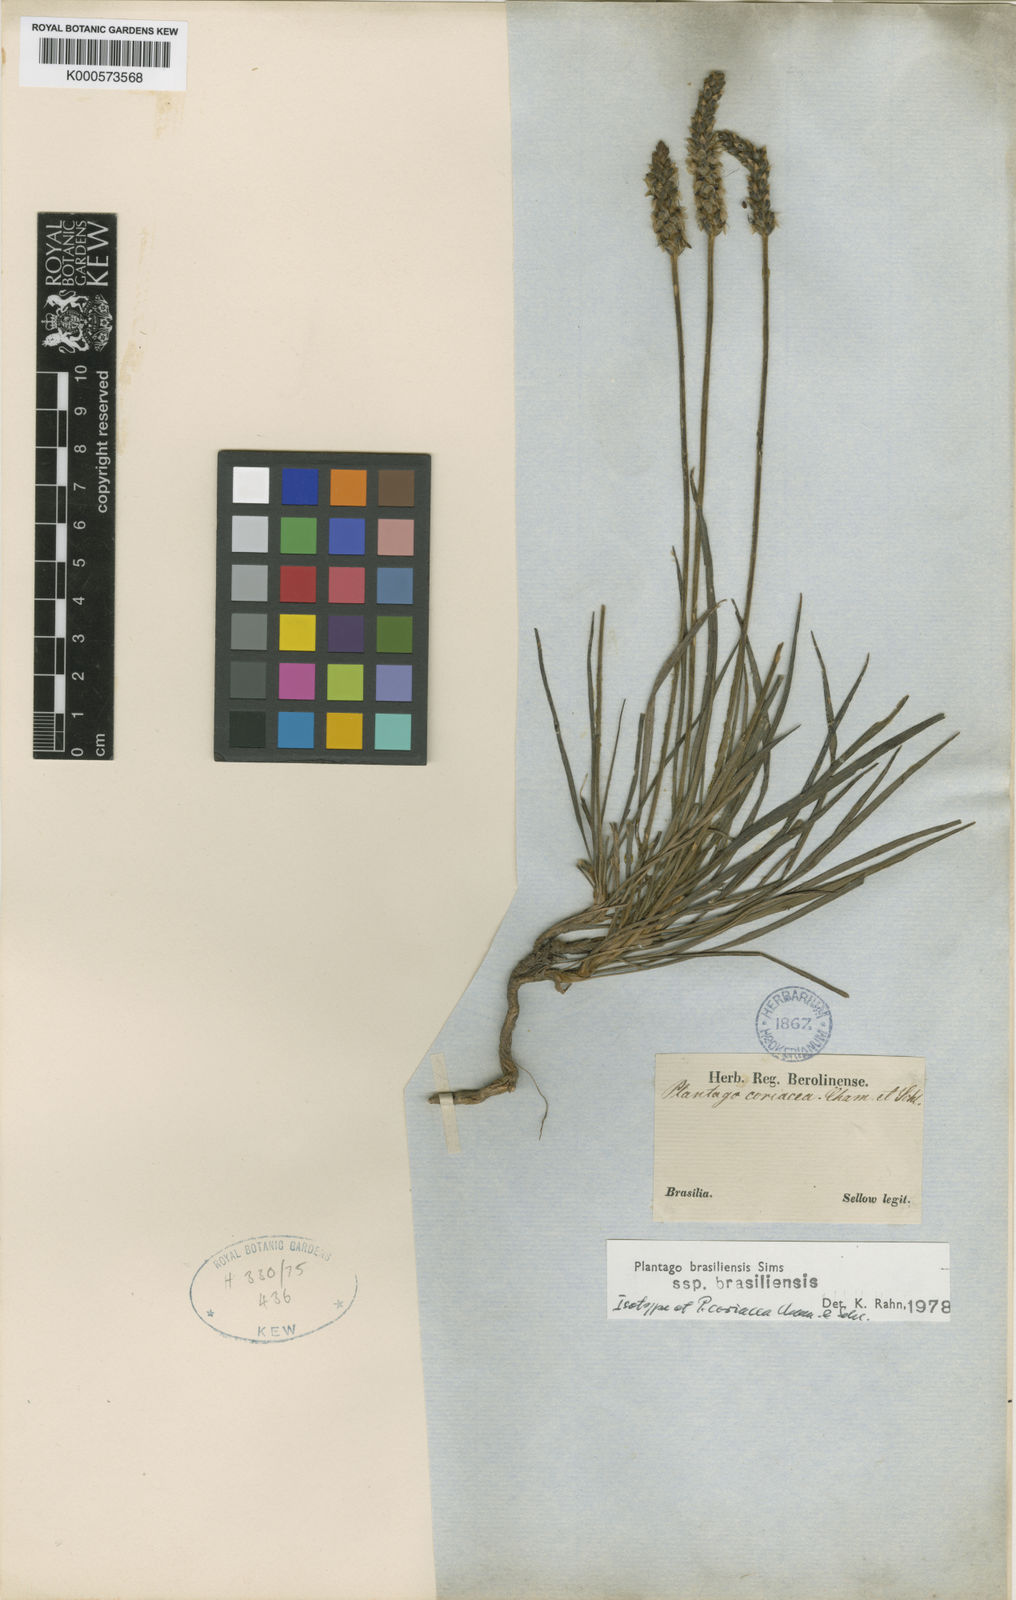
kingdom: Plantae
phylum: Tracheophyta
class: Magnoliopsida
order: Lamiales
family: Plantaginaceae
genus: Plantago
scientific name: Plantago brasiliensis
